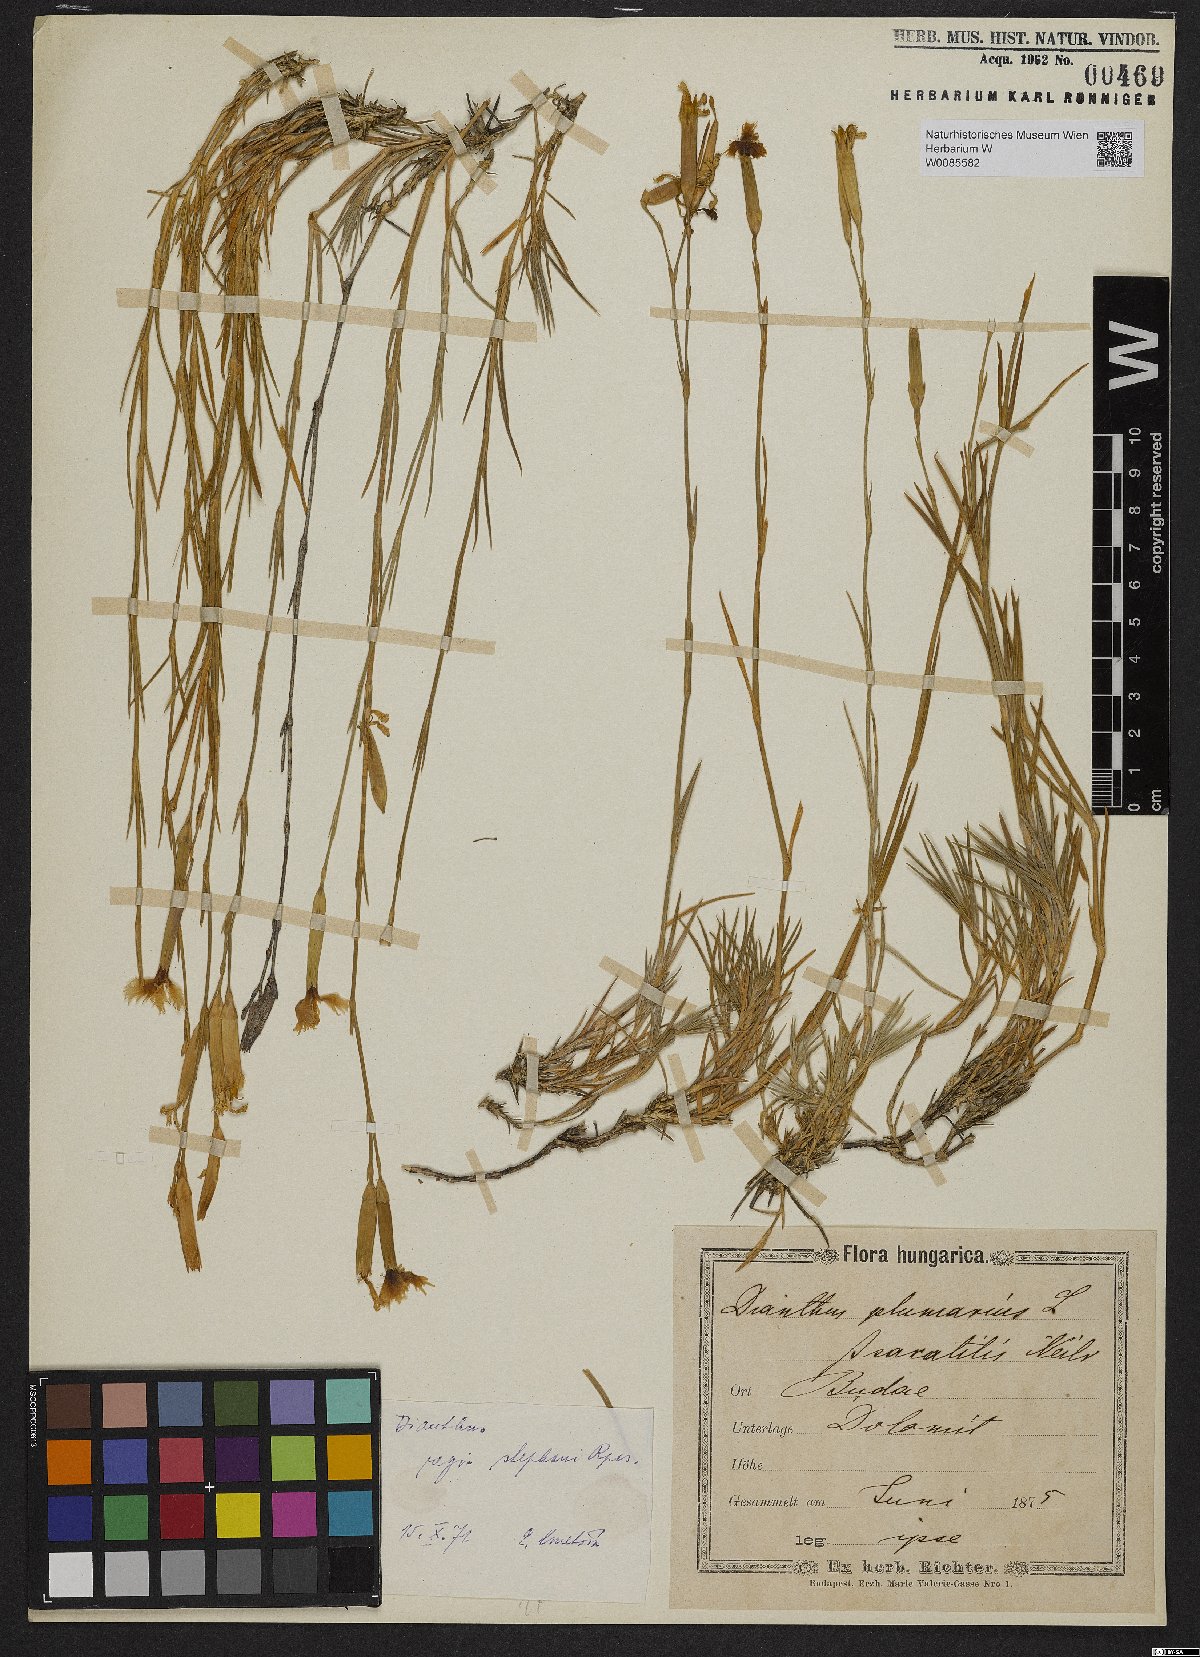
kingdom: Plantae
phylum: Tracheophyta
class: Magnoliopsida
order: Caryophyllales
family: Caryophyllaceae
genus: Dianthus
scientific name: Dianthus plumarius
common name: Pink
